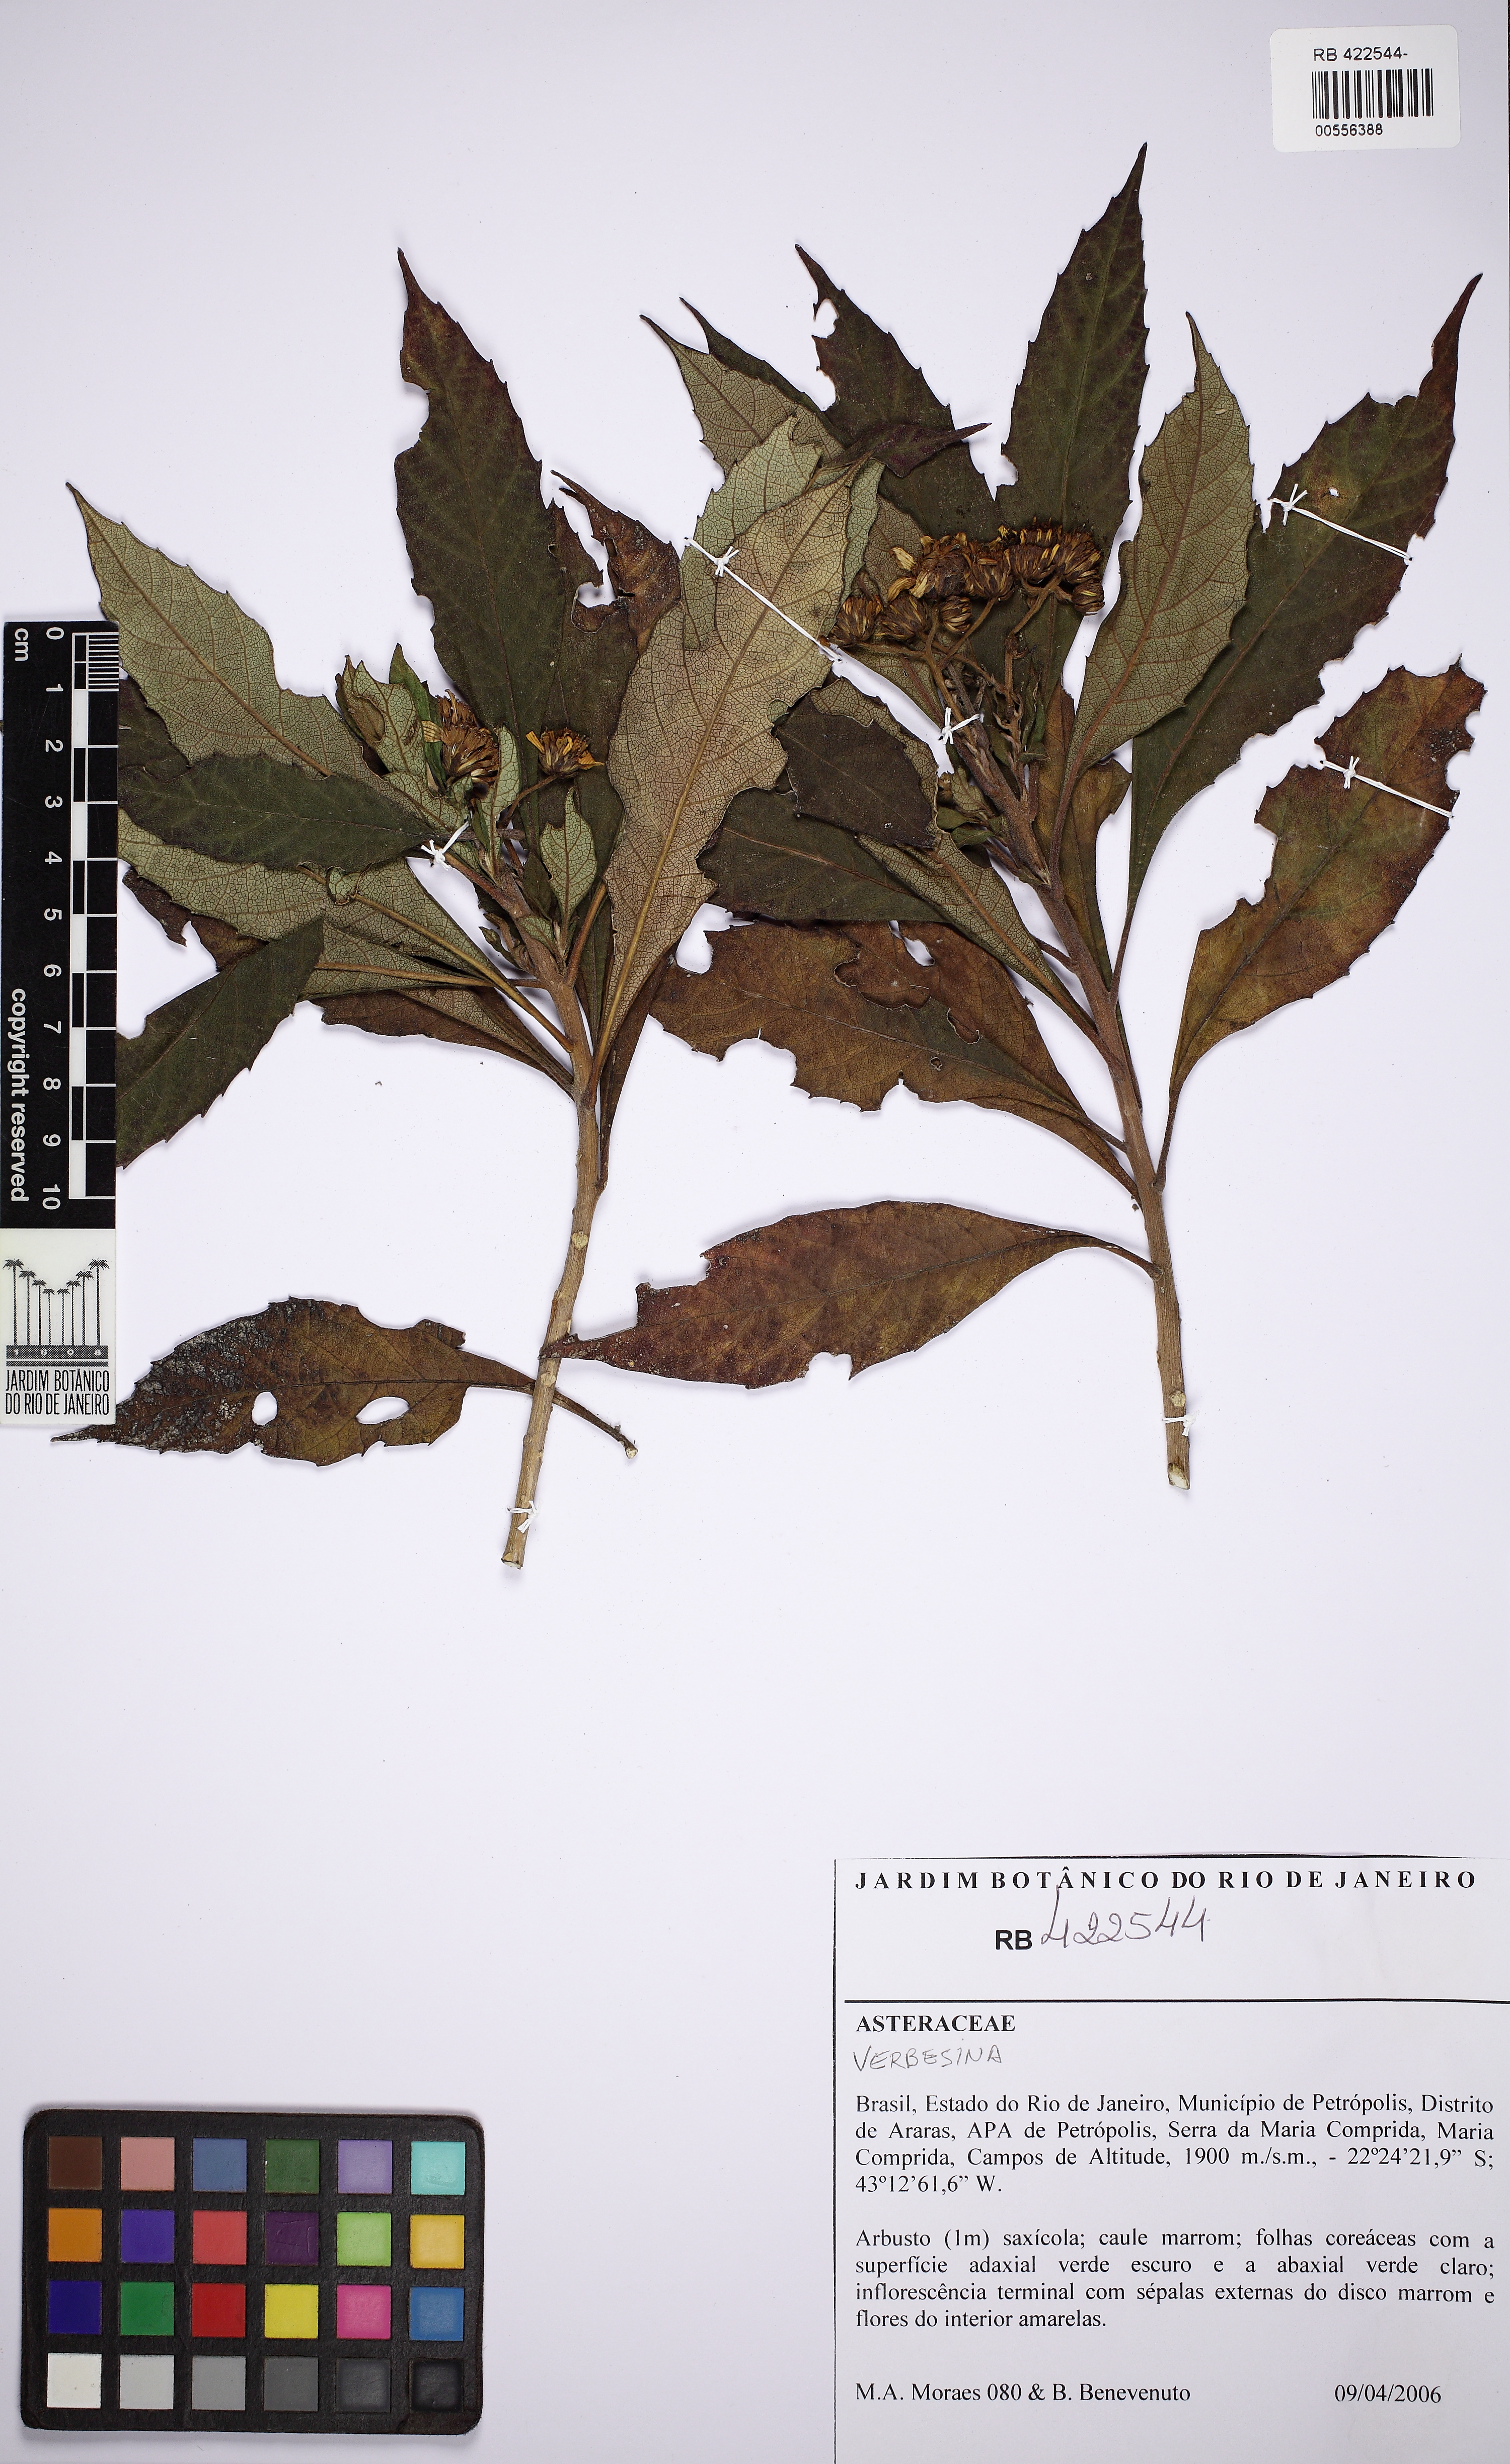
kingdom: Plantae
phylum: Tracheophyta
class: Magnoliopsida
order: Asterales
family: Asteraceae
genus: Verbesina
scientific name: Verbesina glabrata
